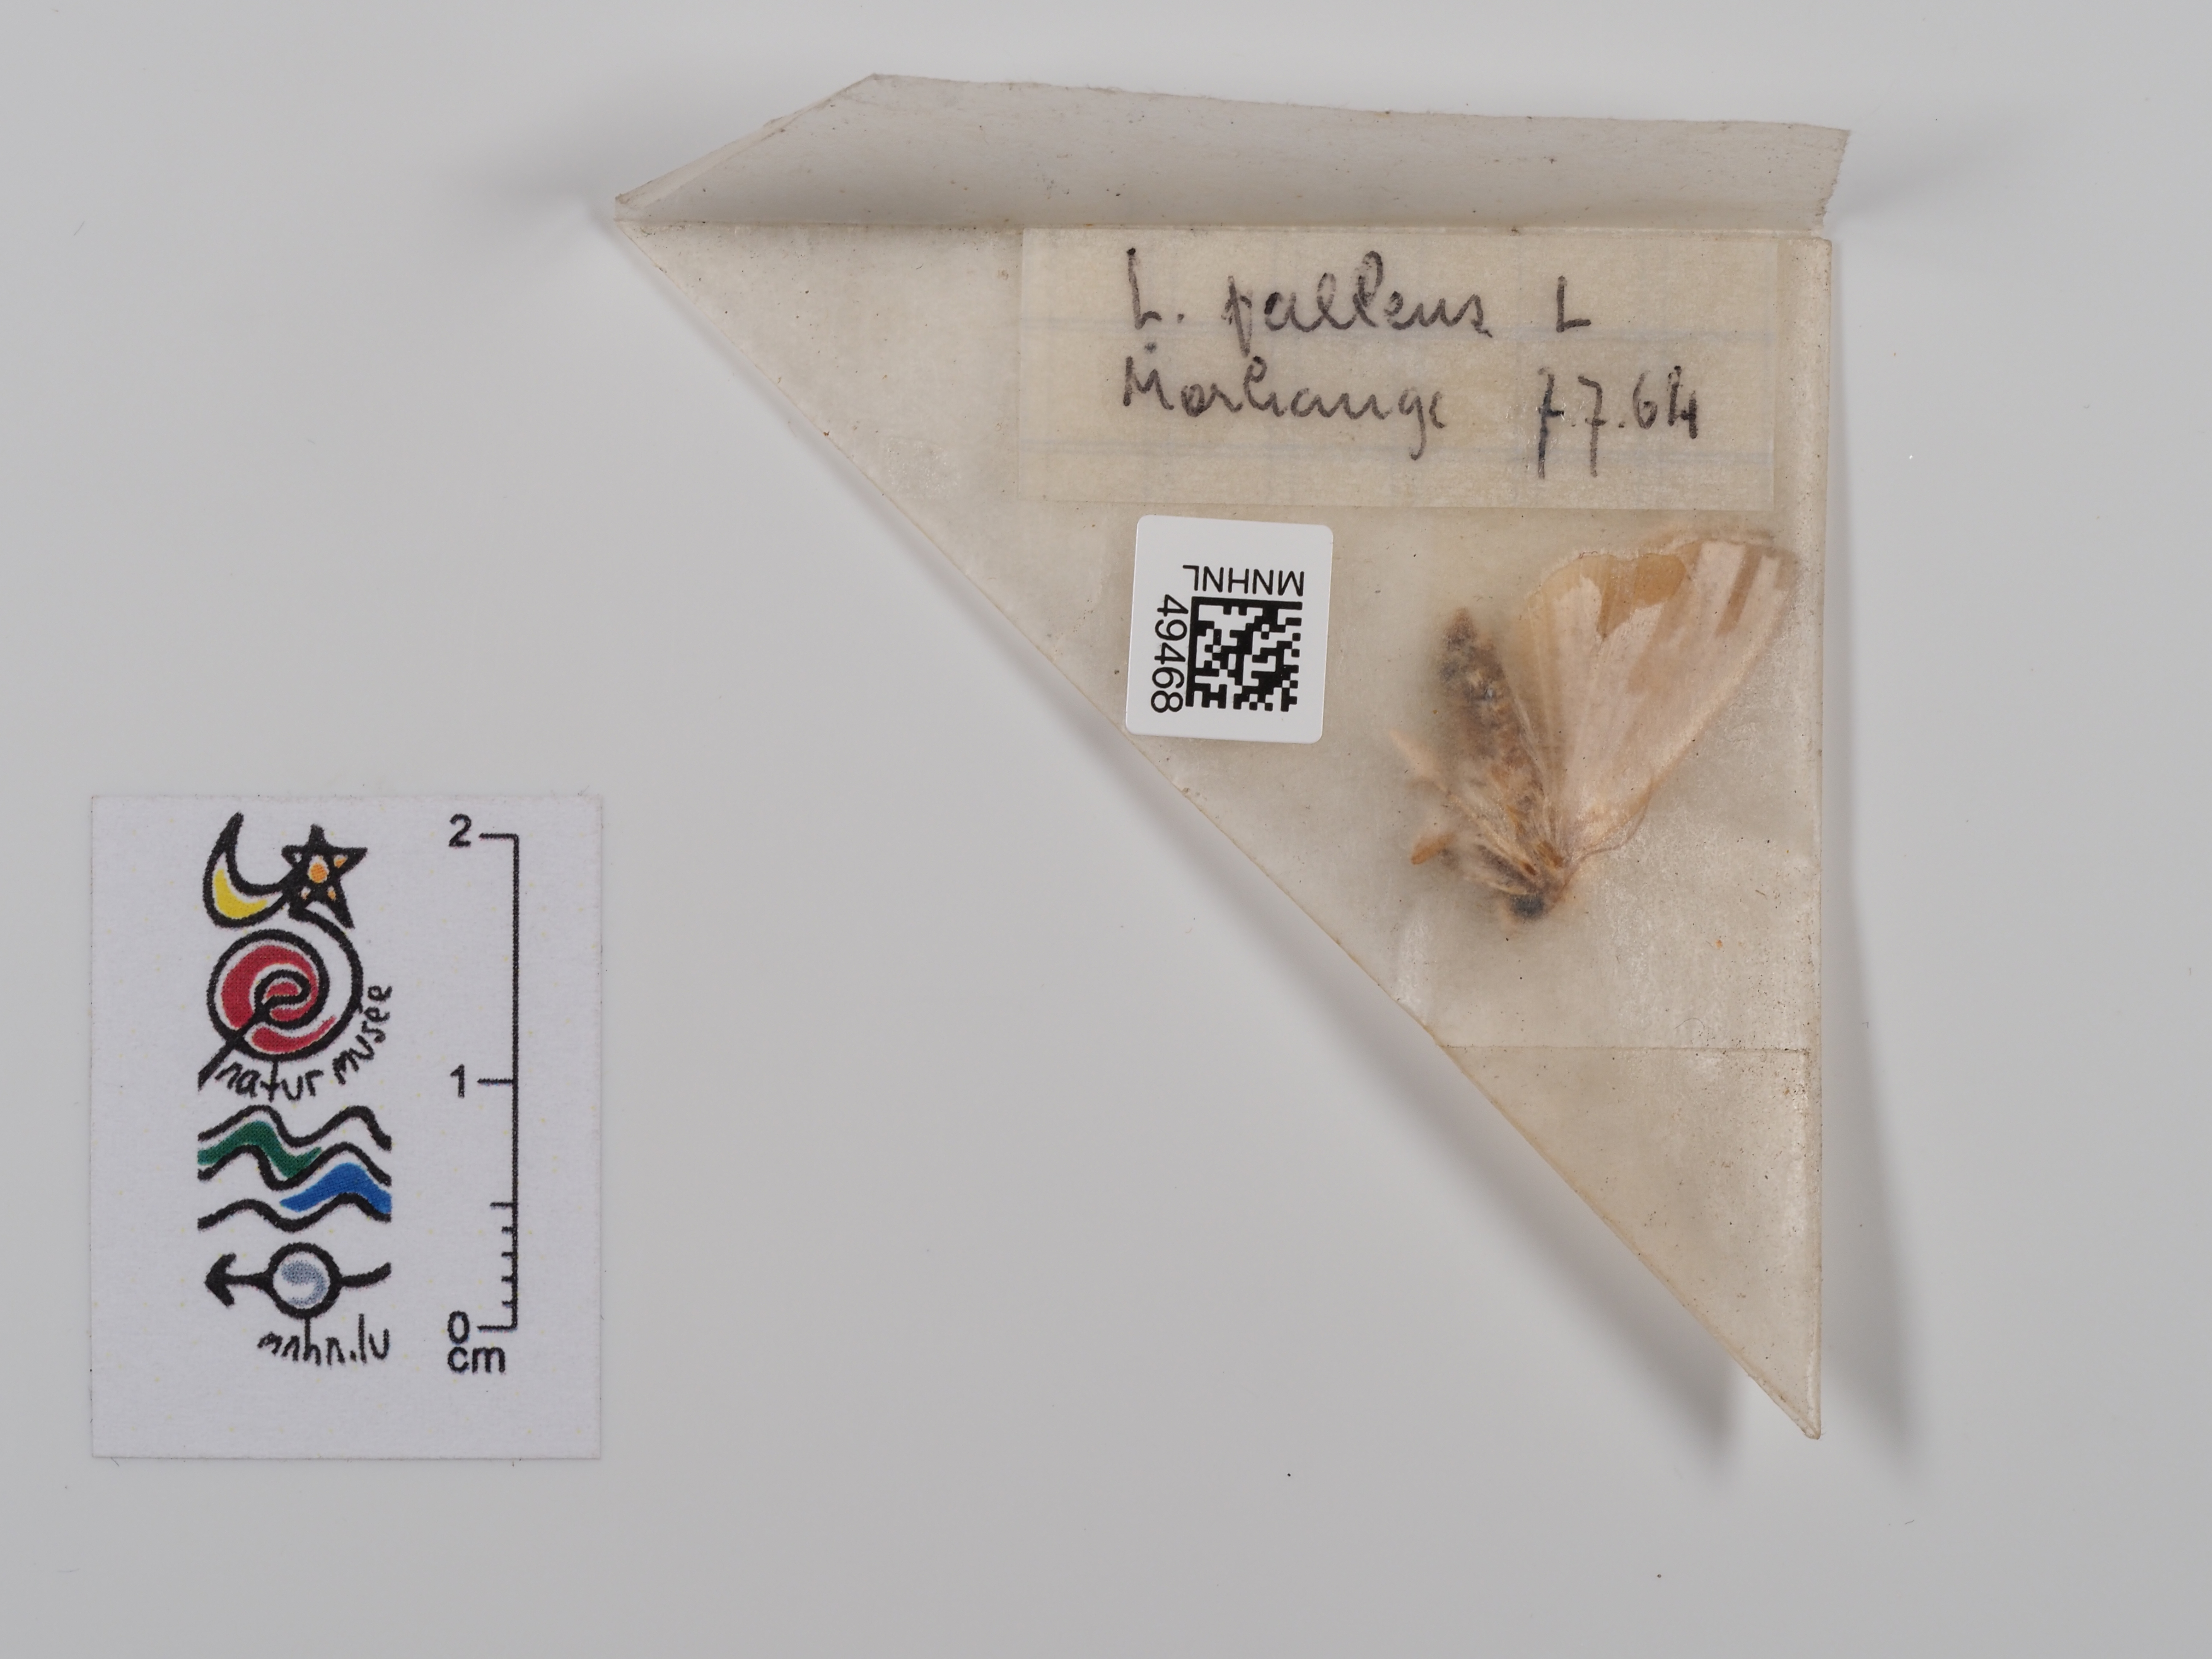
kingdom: Animalia
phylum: Arthropoda
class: Insecta
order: Lepidoptera
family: Noctuidae
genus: Mythimna
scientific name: Mythimna pallens
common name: Common wainscot
